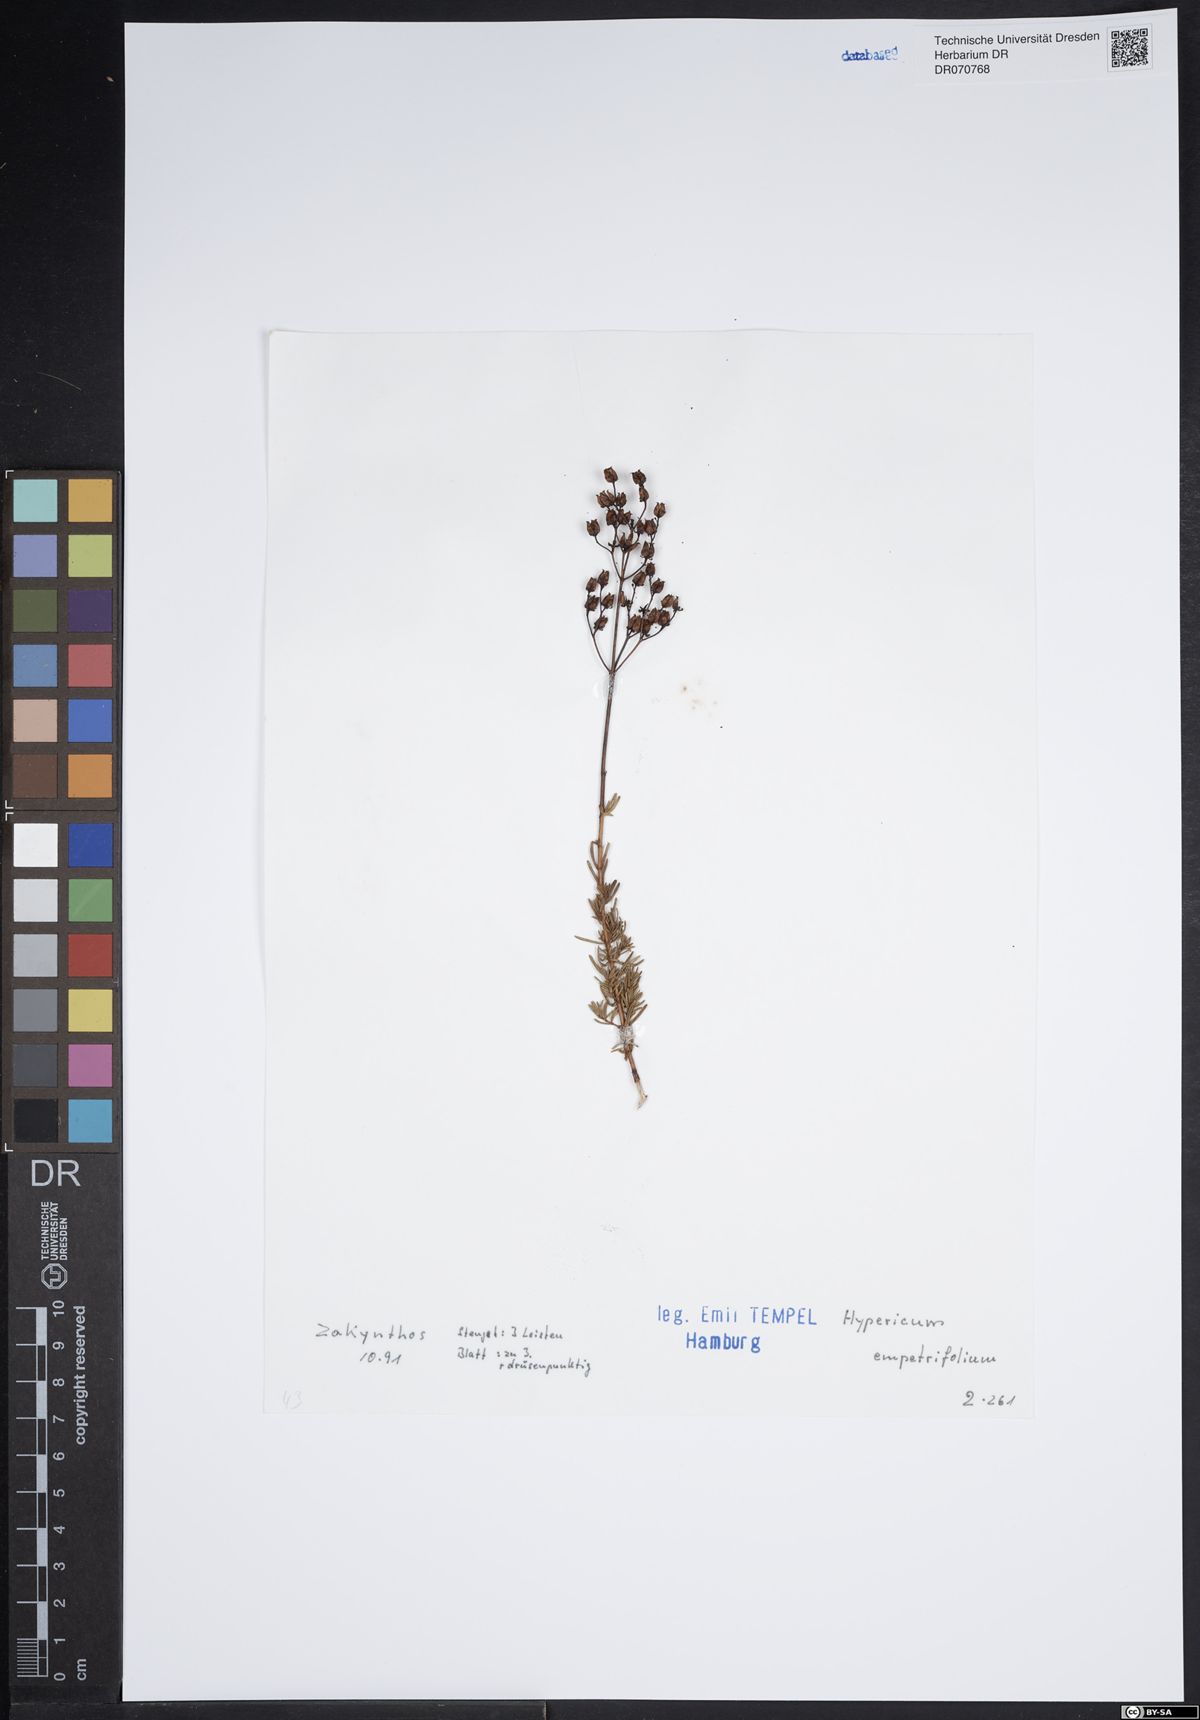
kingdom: Plantae
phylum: Tracheophyta
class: Magnoliopsida
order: Malpighiales
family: Hypericaceae
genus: Hypericum
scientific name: Hypericum empetrifolium
